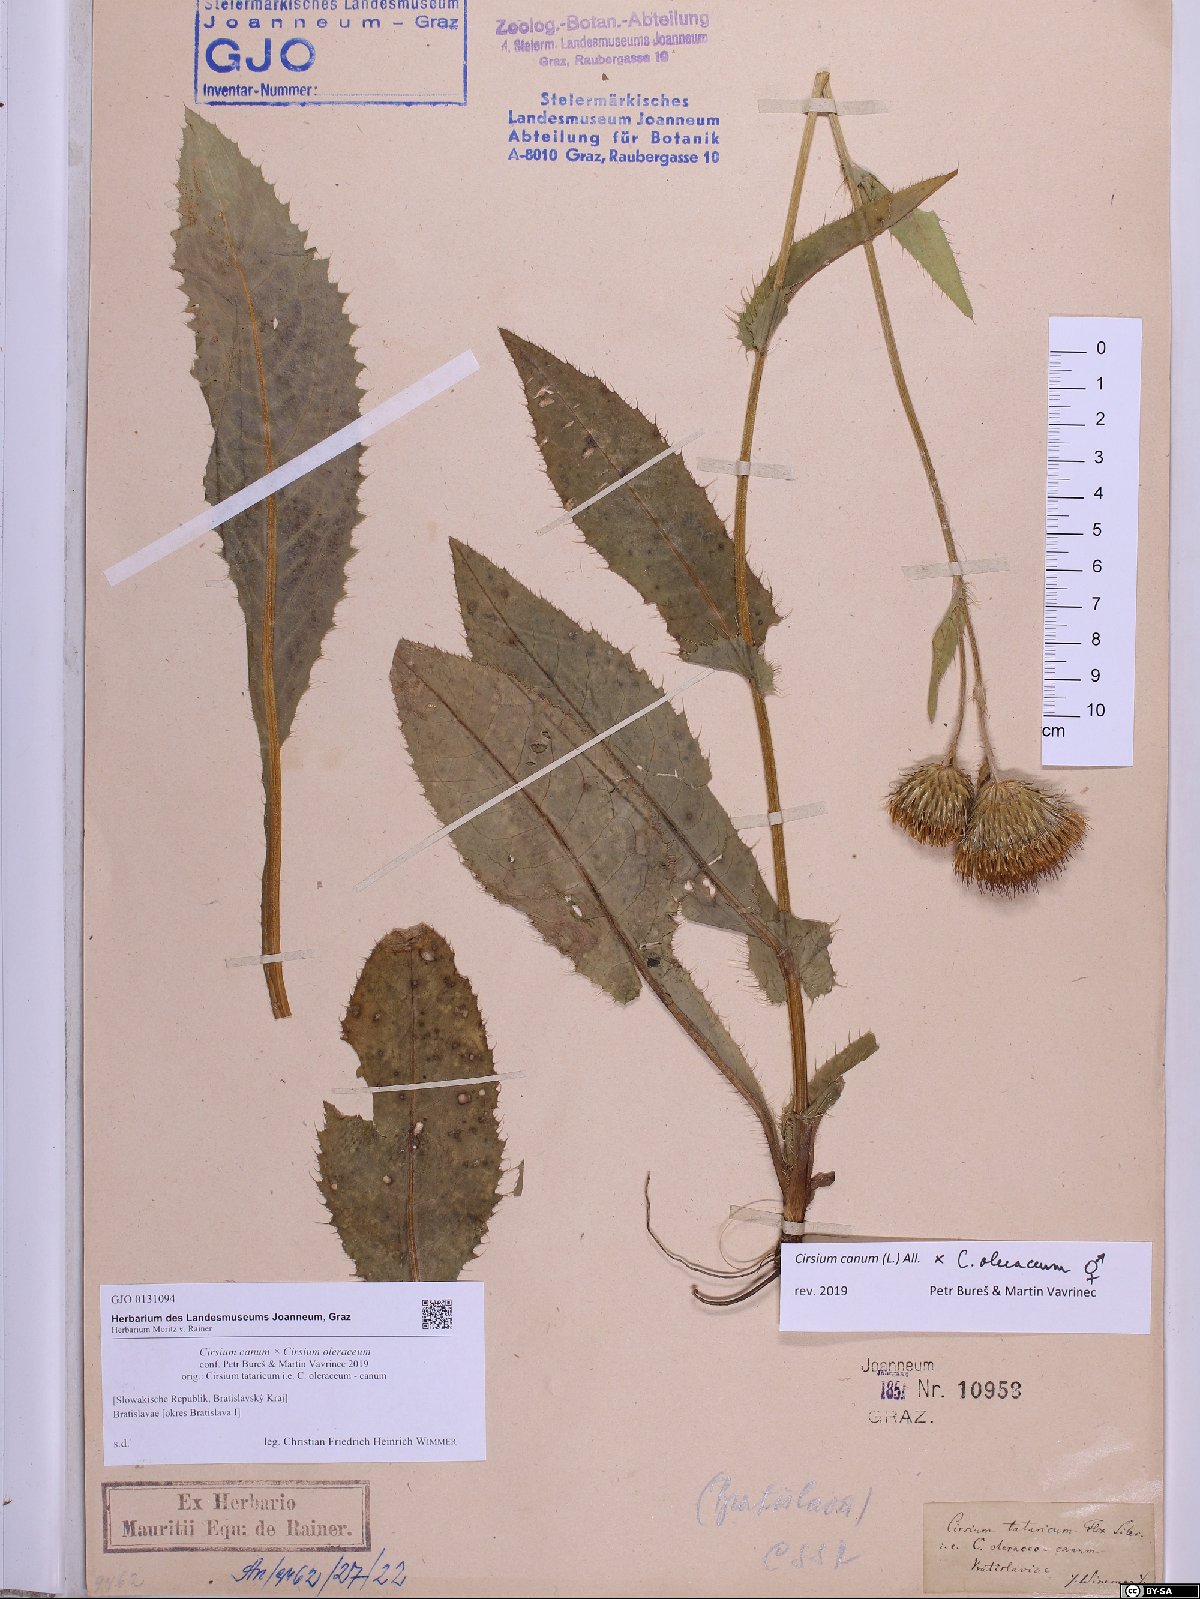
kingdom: Plantae
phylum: Tracheophyta
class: Magnoliopsida
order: Asterales
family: Asteraceae
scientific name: Asteraceae
